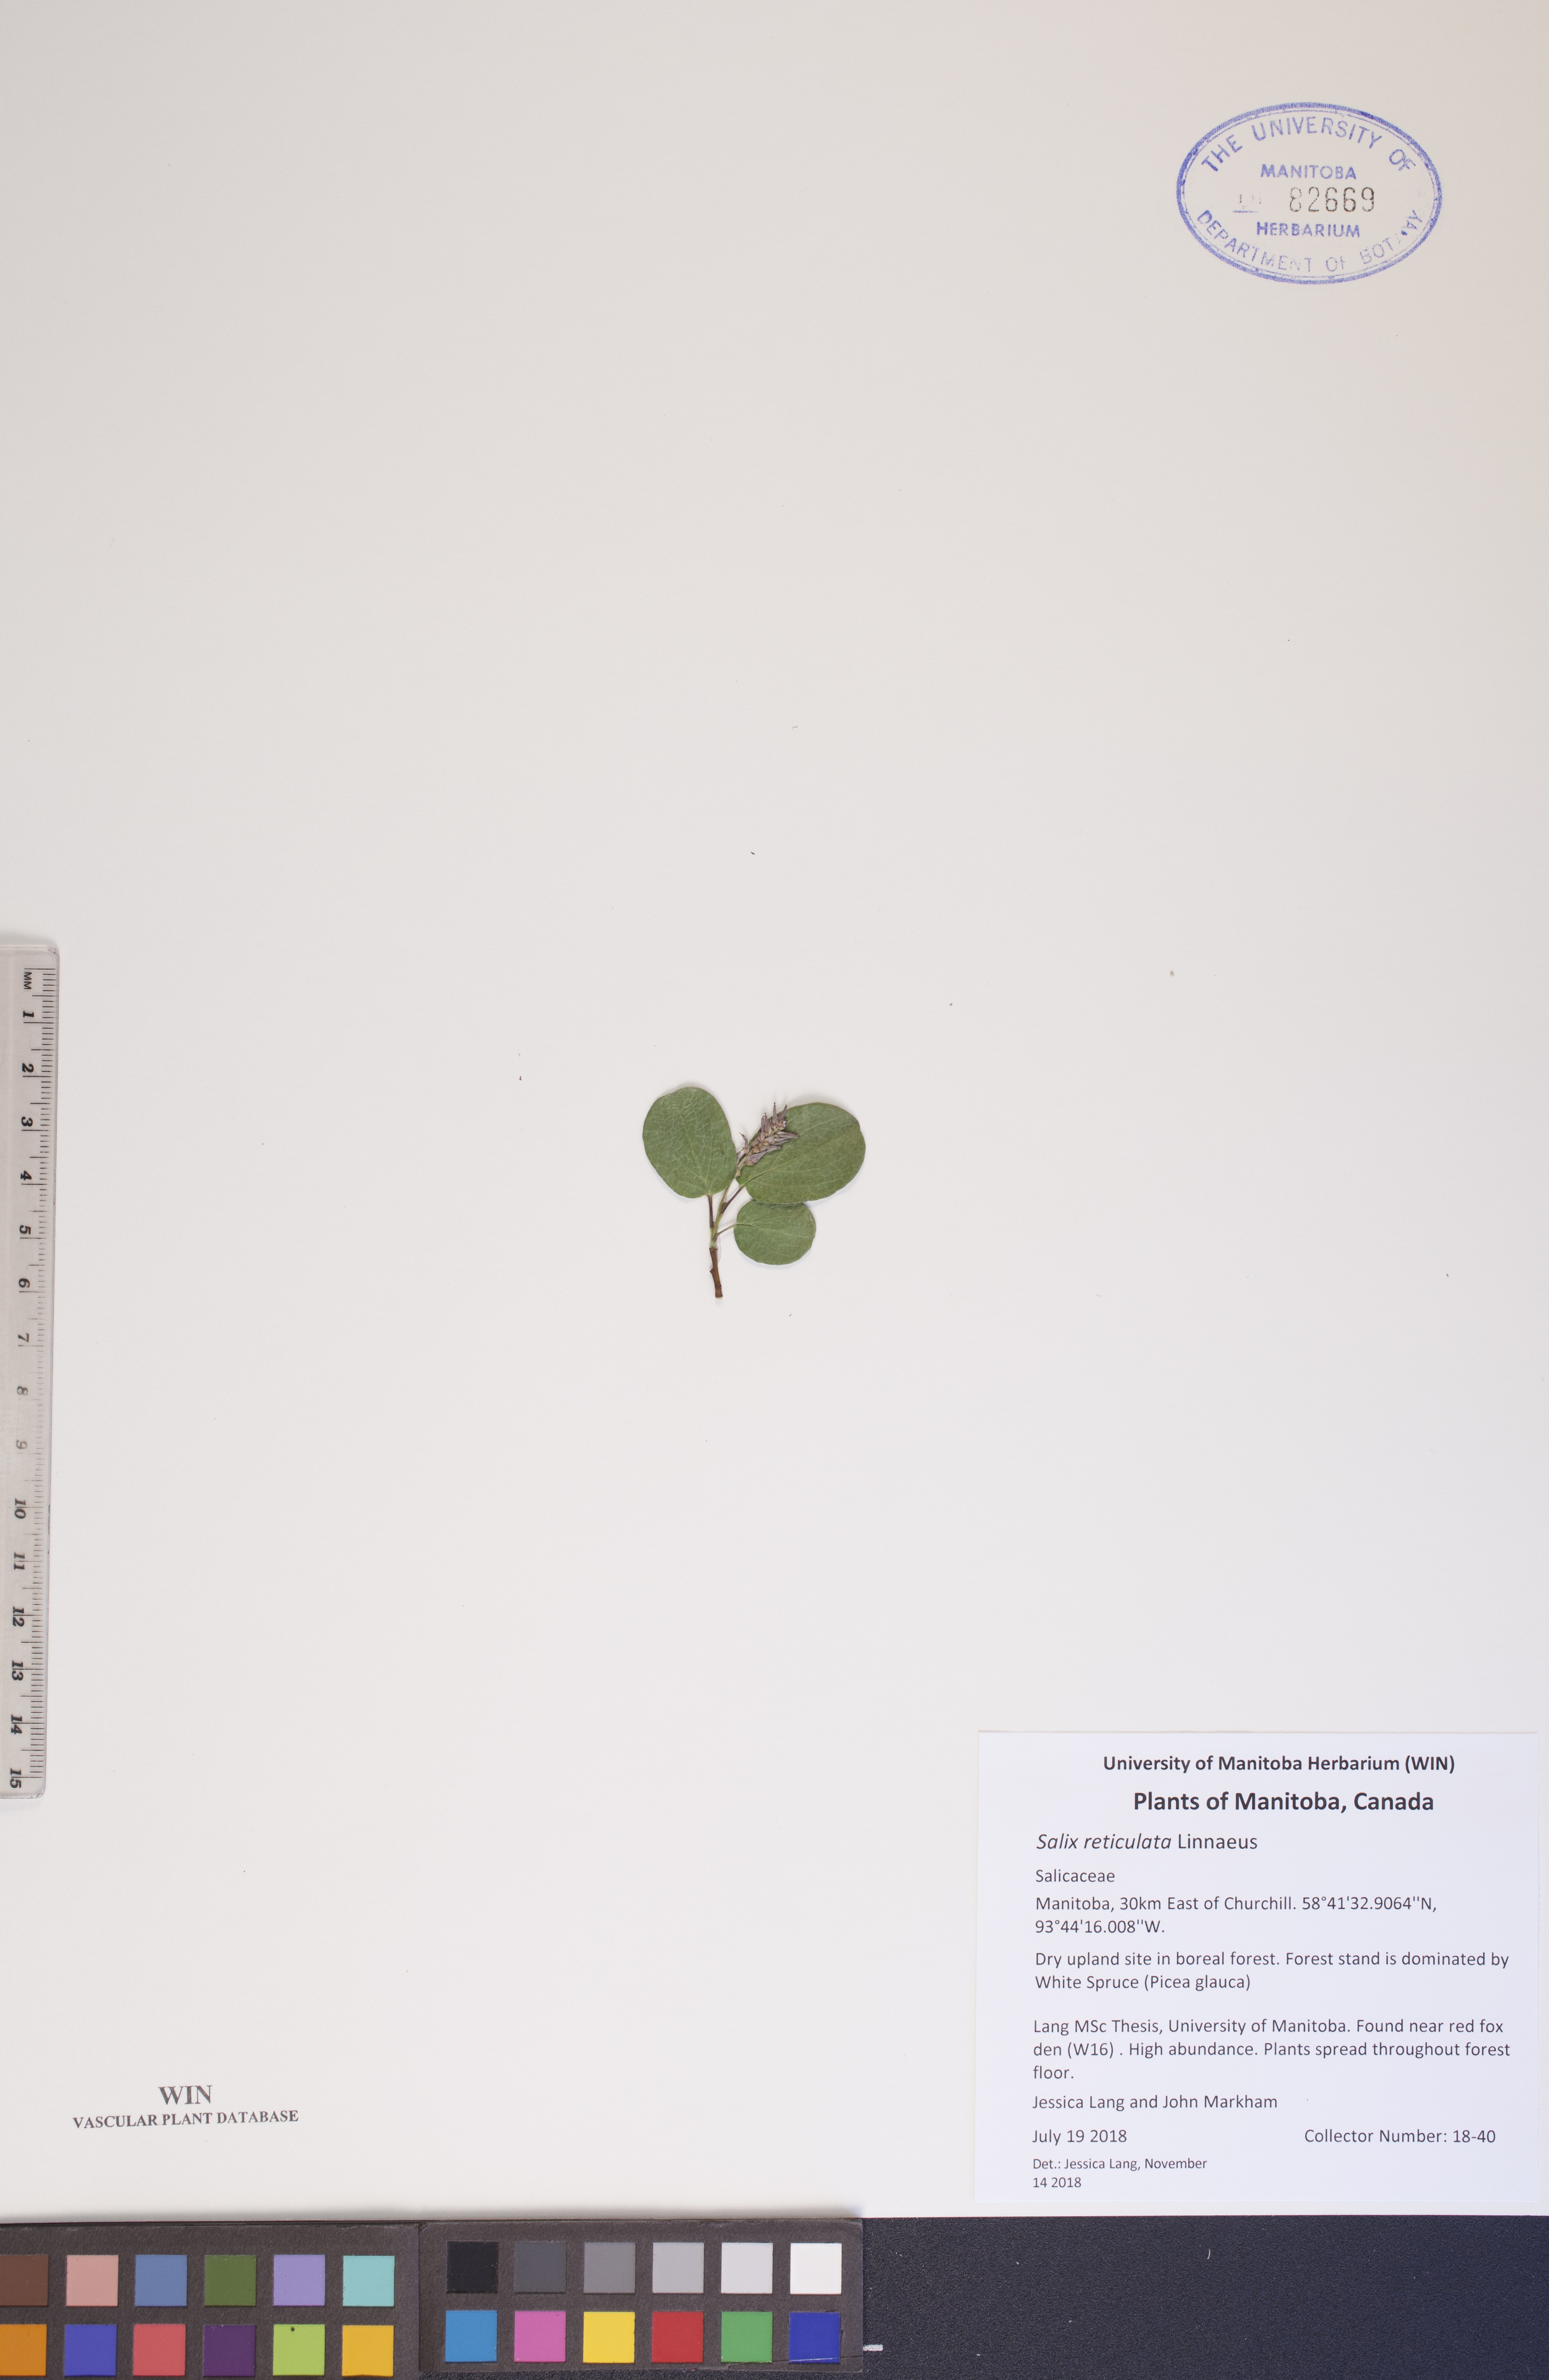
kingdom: Plantae
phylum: Tracheophyta
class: Magnoliopsida
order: Malpighiales
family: Salicaceae
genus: Salix
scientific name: Salix reticulata
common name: Net-leaved willow
